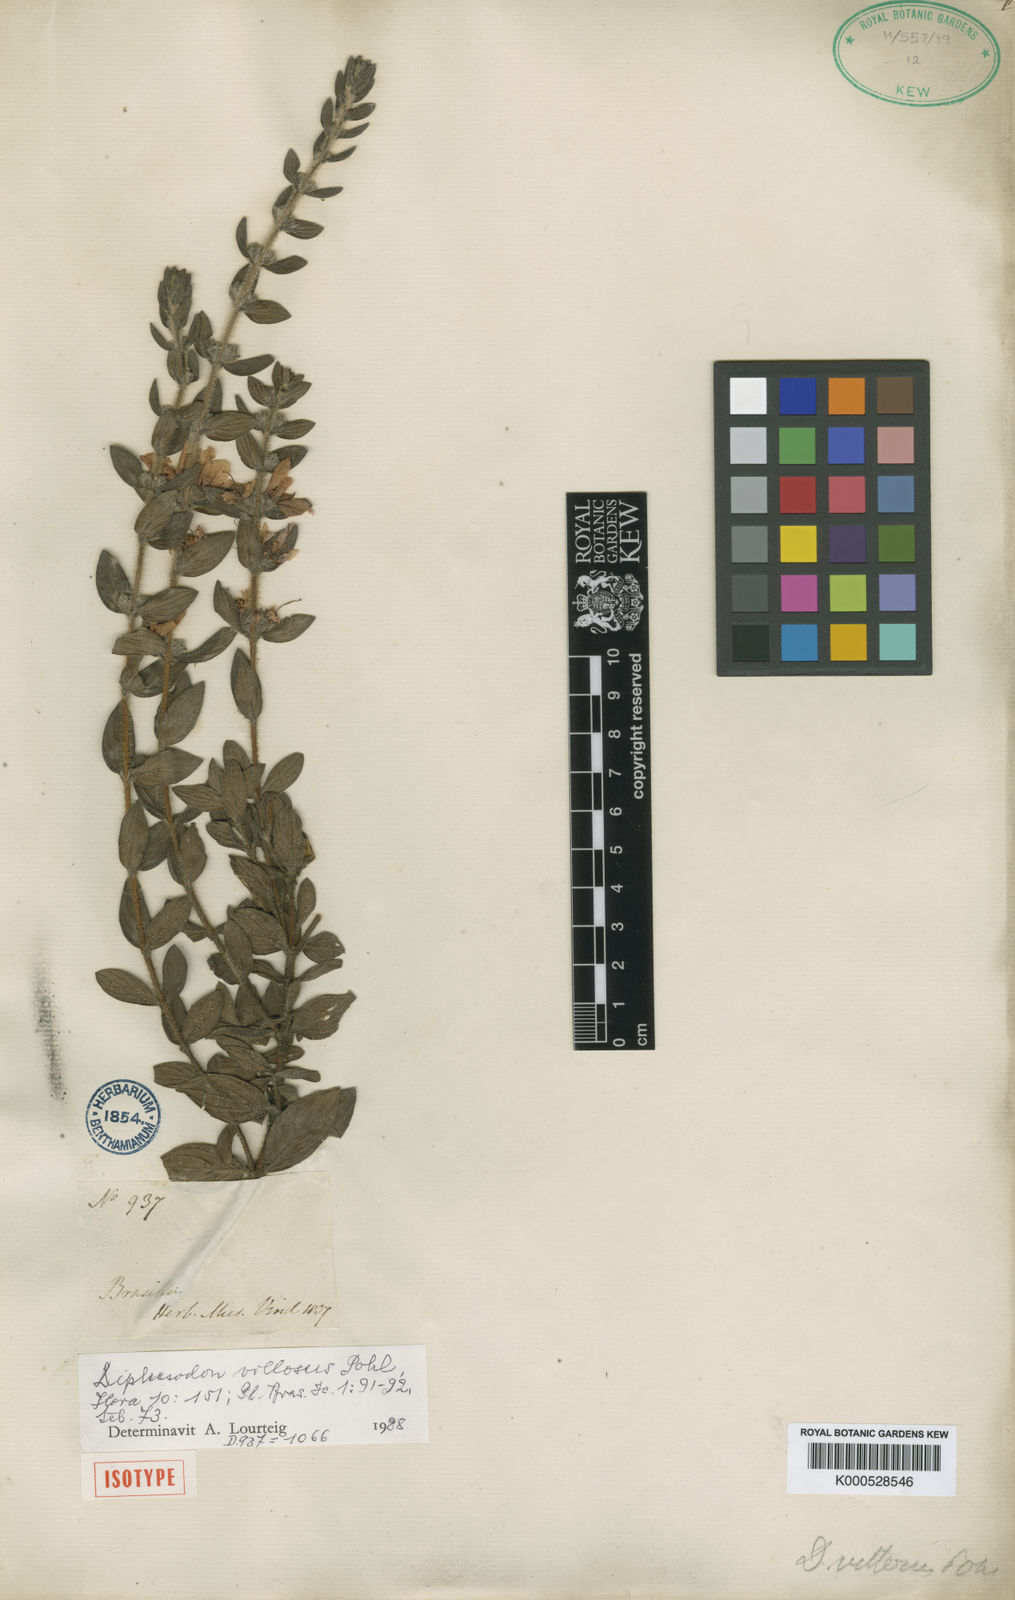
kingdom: Plantae
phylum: Tracheophyta
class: Magnoliopsida
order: Myrtales
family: Lythraceae
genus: Diplusodon
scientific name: Diplusodon villosus
